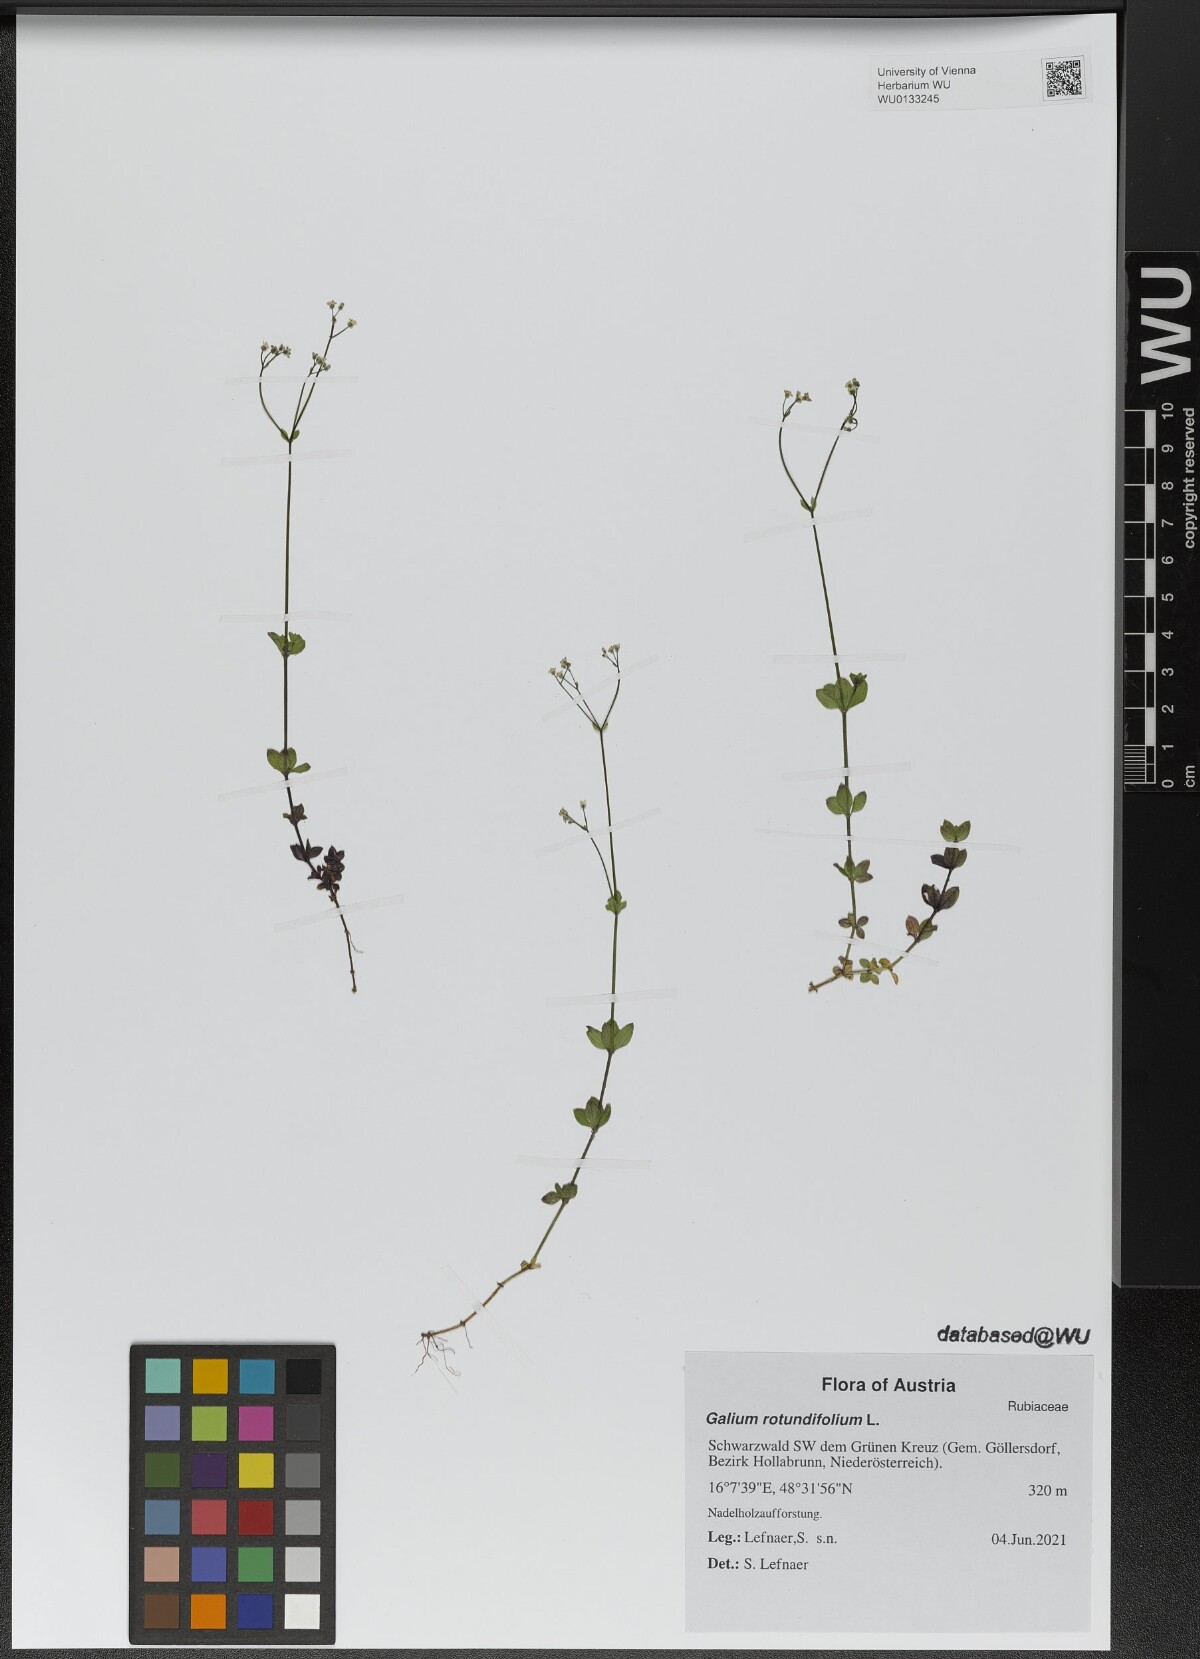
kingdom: Plantae
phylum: Tracheophyta
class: Magnoliopsida
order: Gentianales
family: Rubiaceae
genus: Galium
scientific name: Galium rotundifolium
